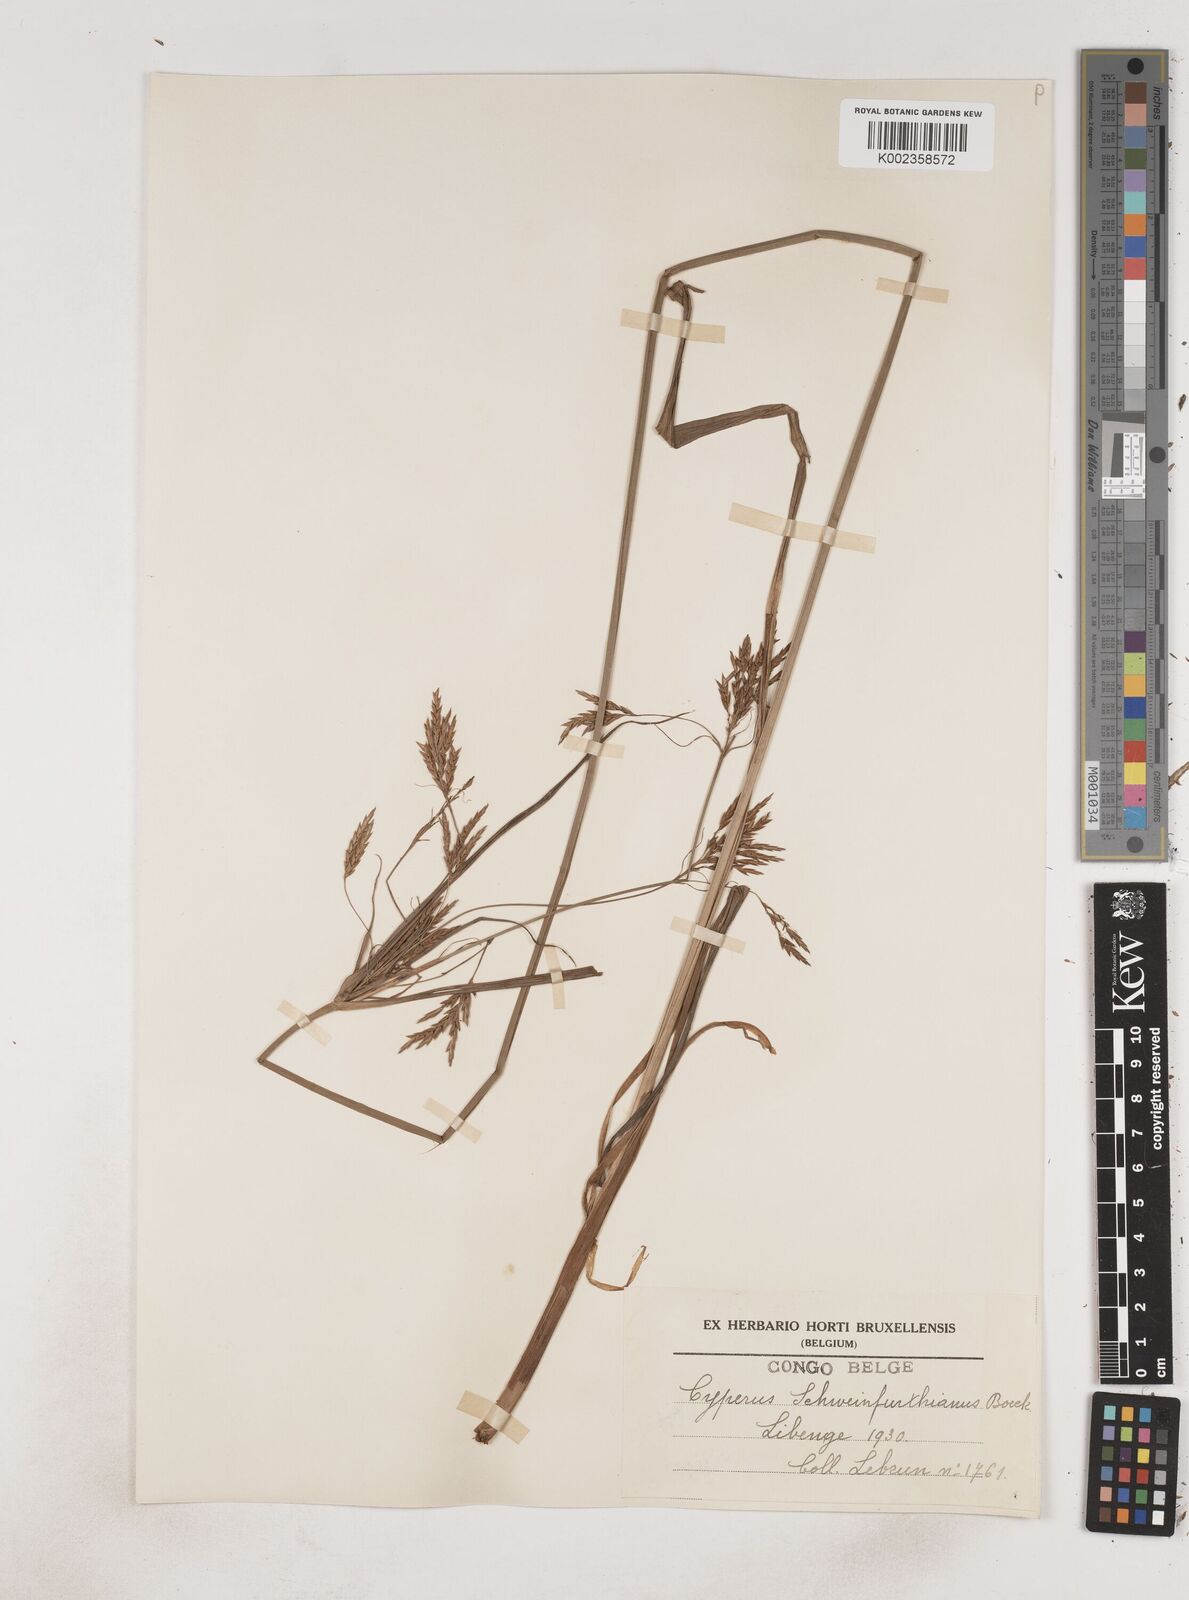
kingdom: Plantae
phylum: Tracheophyta
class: Liliopsida
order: Poales
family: Cyperaceae
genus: Cyperus
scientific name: Cyperus tenuiculmis
